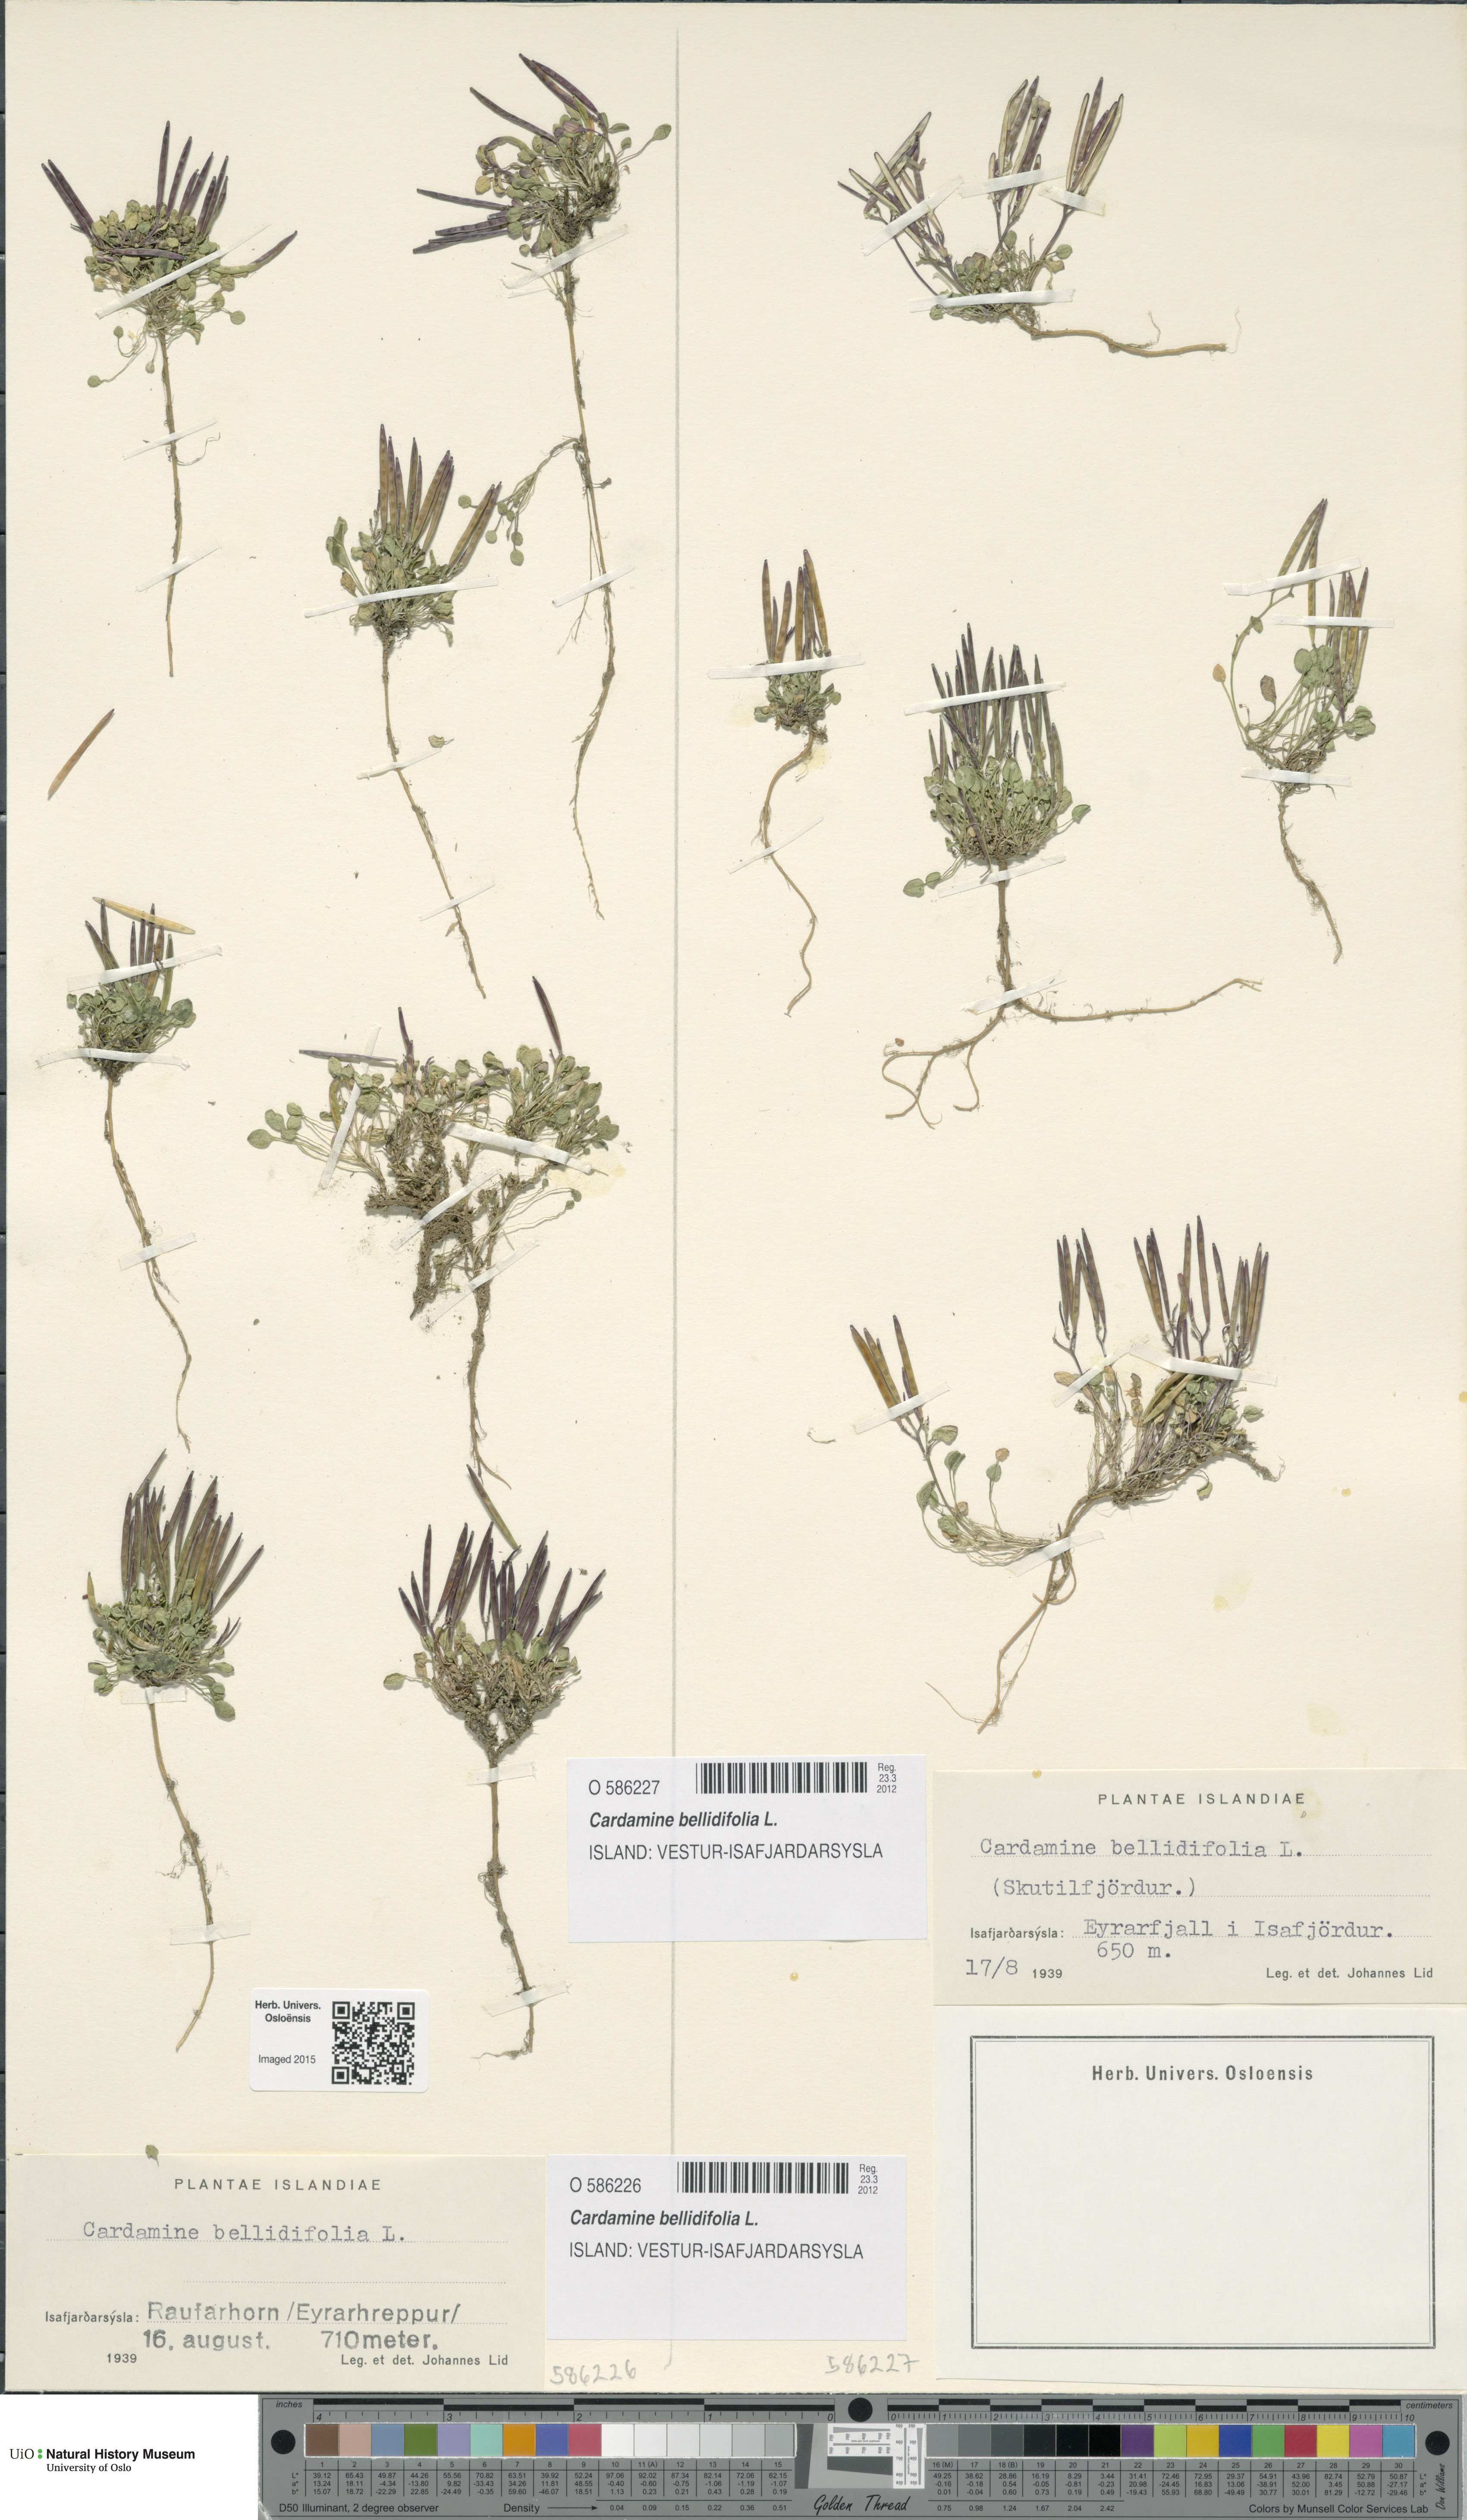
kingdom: Plantae
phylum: Tracheophyta
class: Magnoliopsida
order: Brassicales
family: Brassicaceae
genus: Cardamine
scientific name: Cardamine bellidifolia
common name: Alpine bittercress
